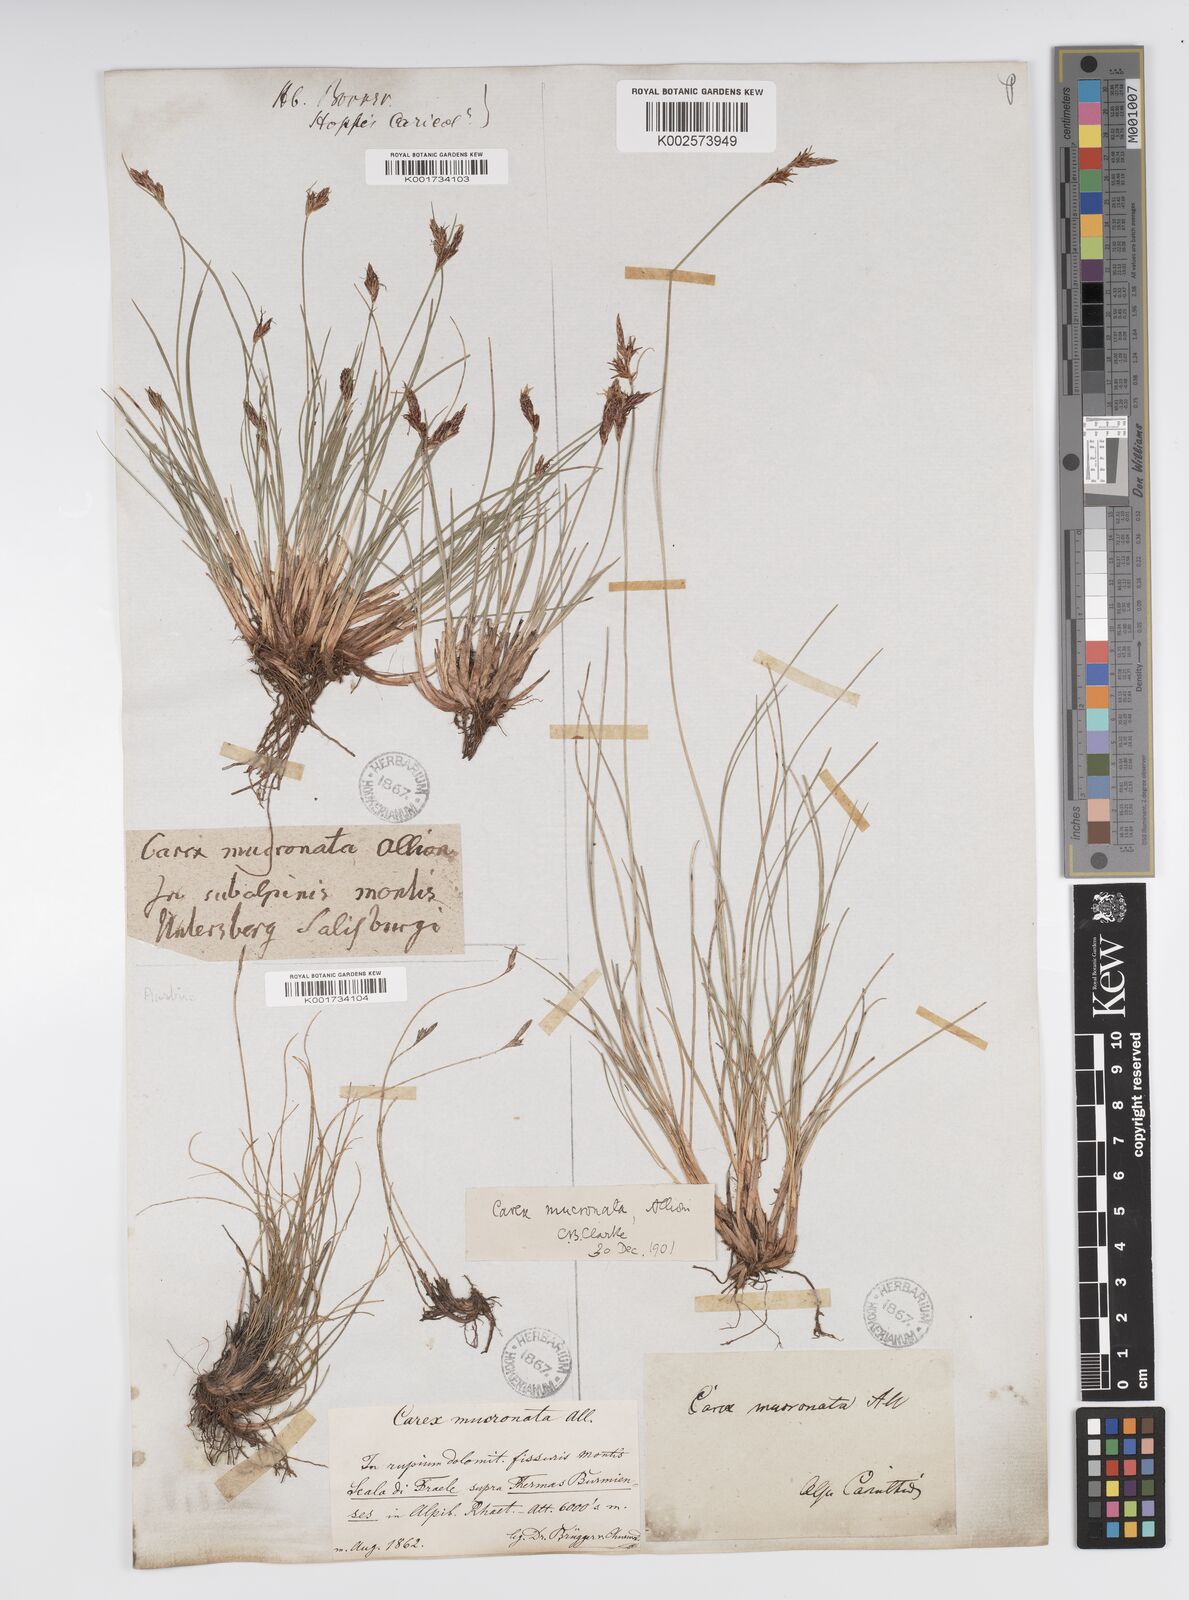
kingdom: Plantae
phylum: Tracheophyta
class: Liliopsida
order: Poales
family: Cyperaceae
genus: Carex
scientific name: Carex mucronata
